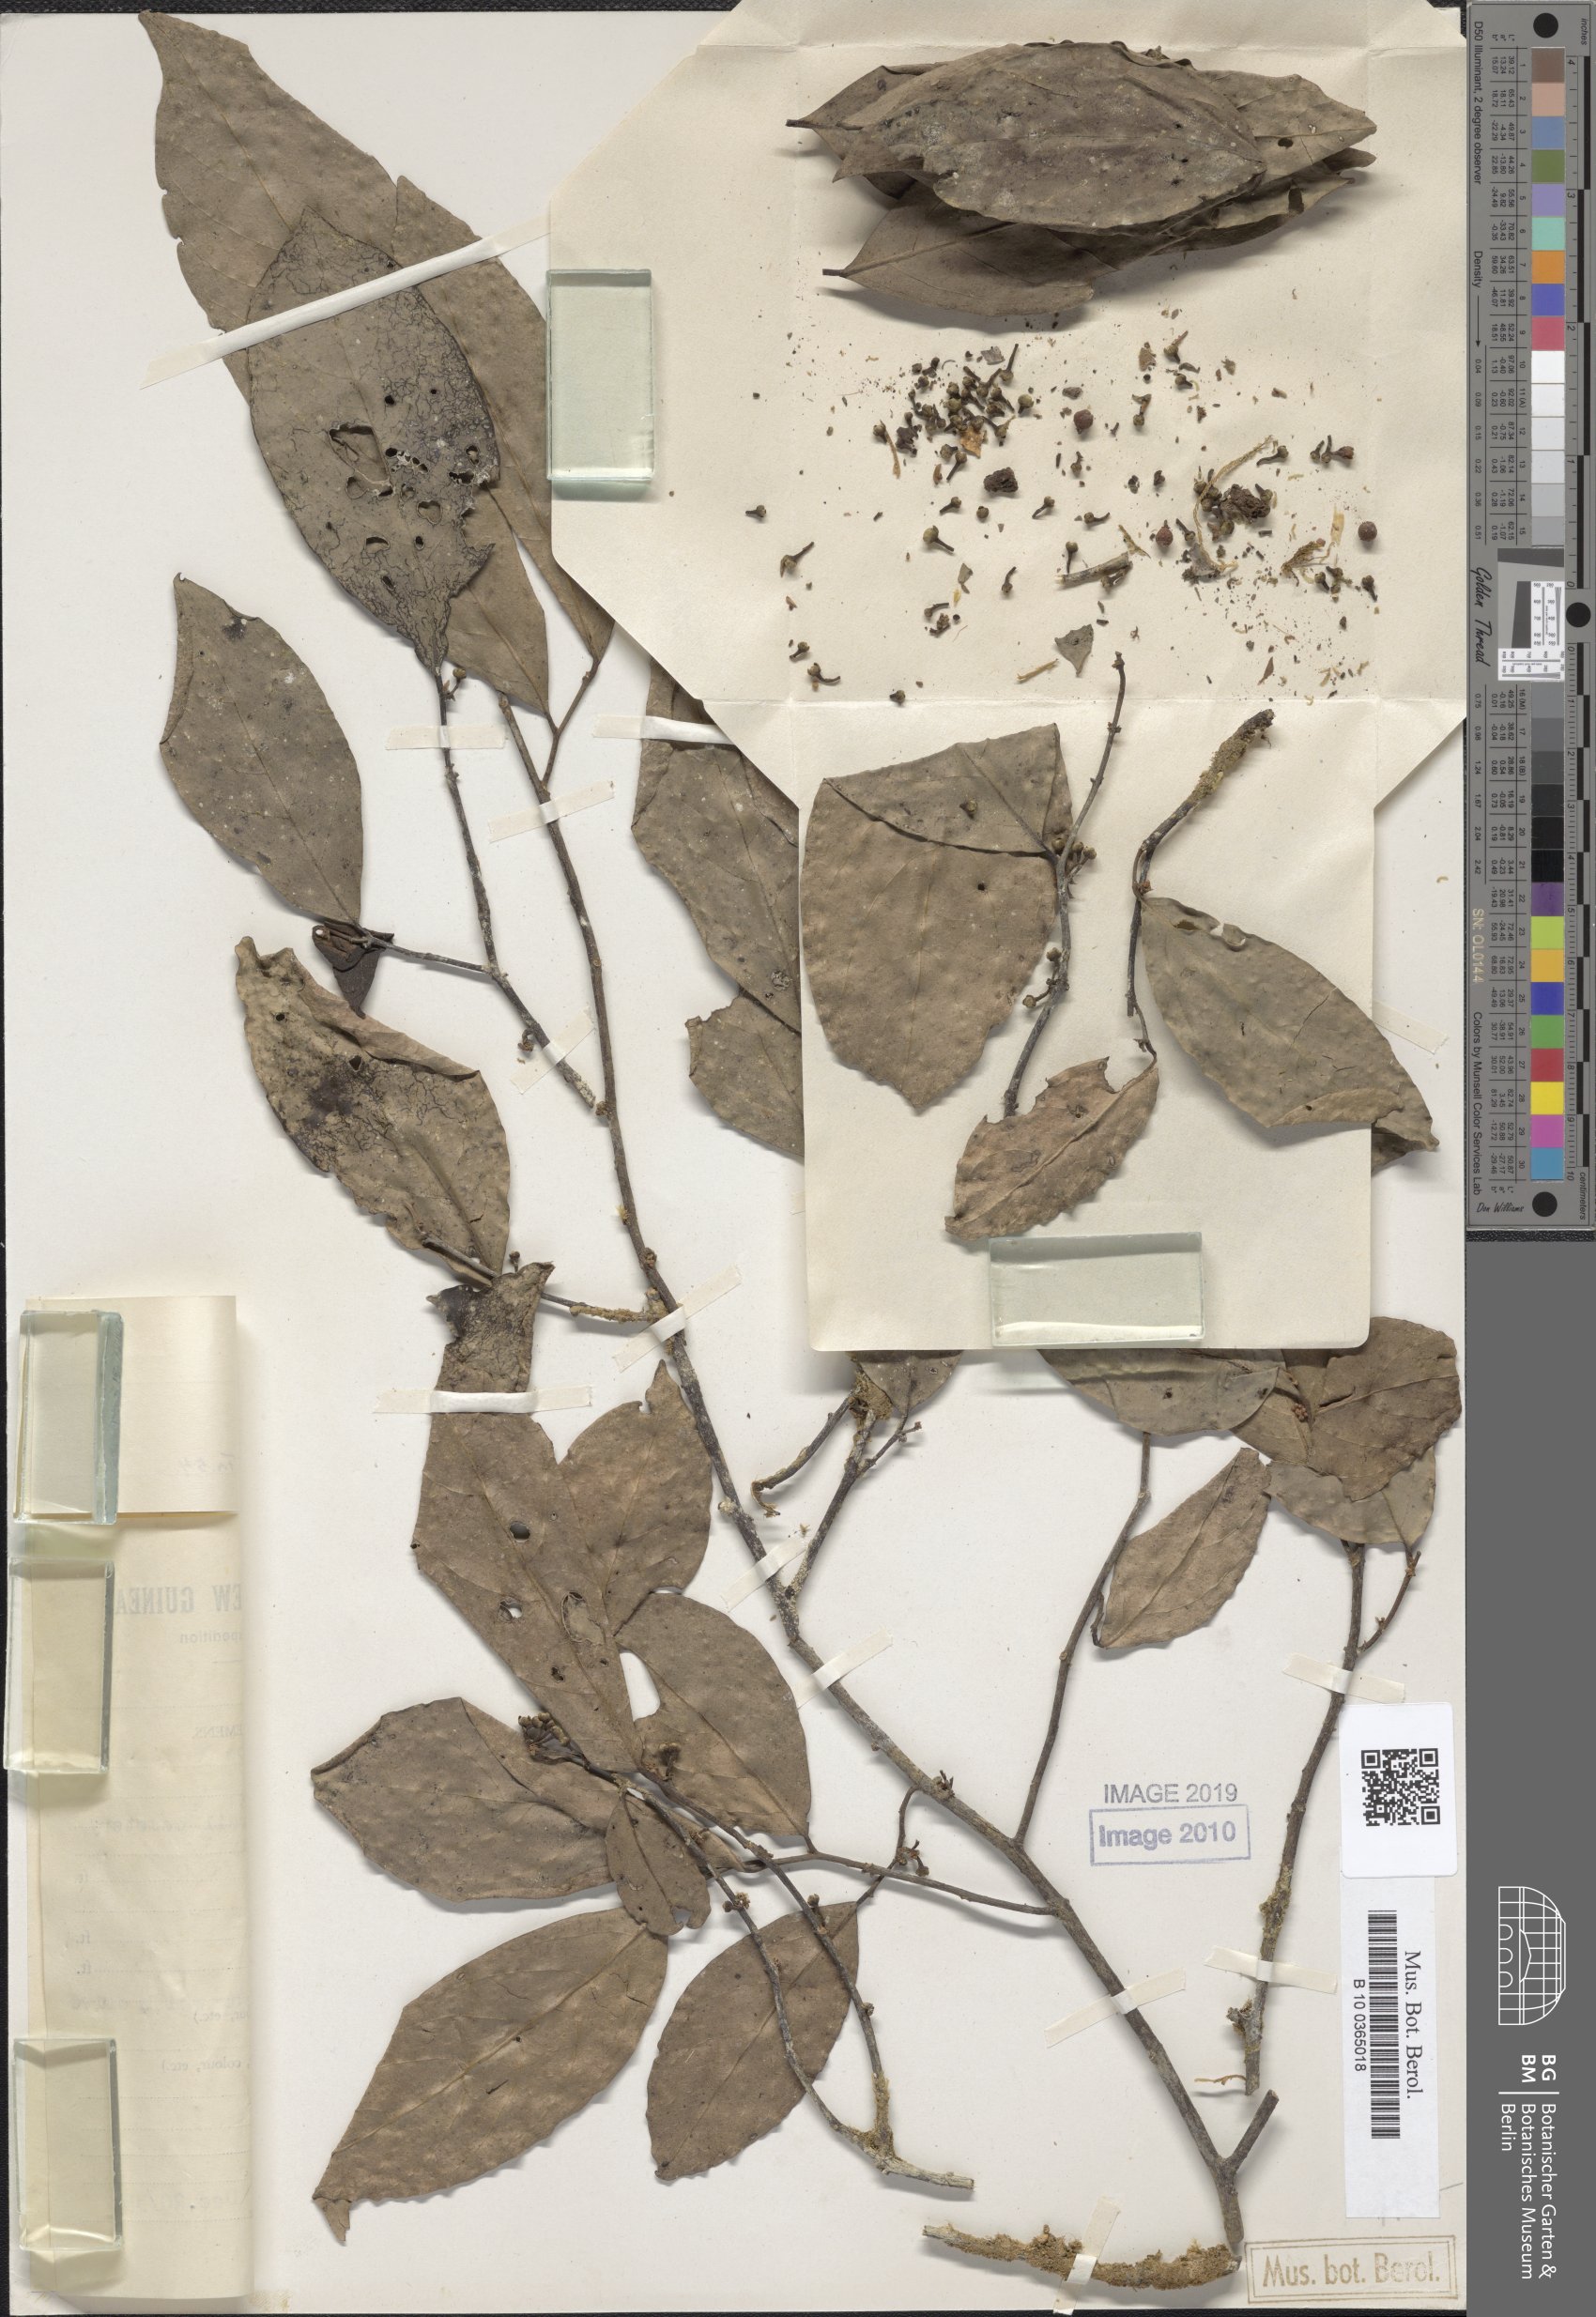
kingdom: Plantae
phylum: Tracheophyta
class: Magnoliopsida
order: Magnoliales
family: Annonaceae
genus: Popowia
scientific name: Popowia
